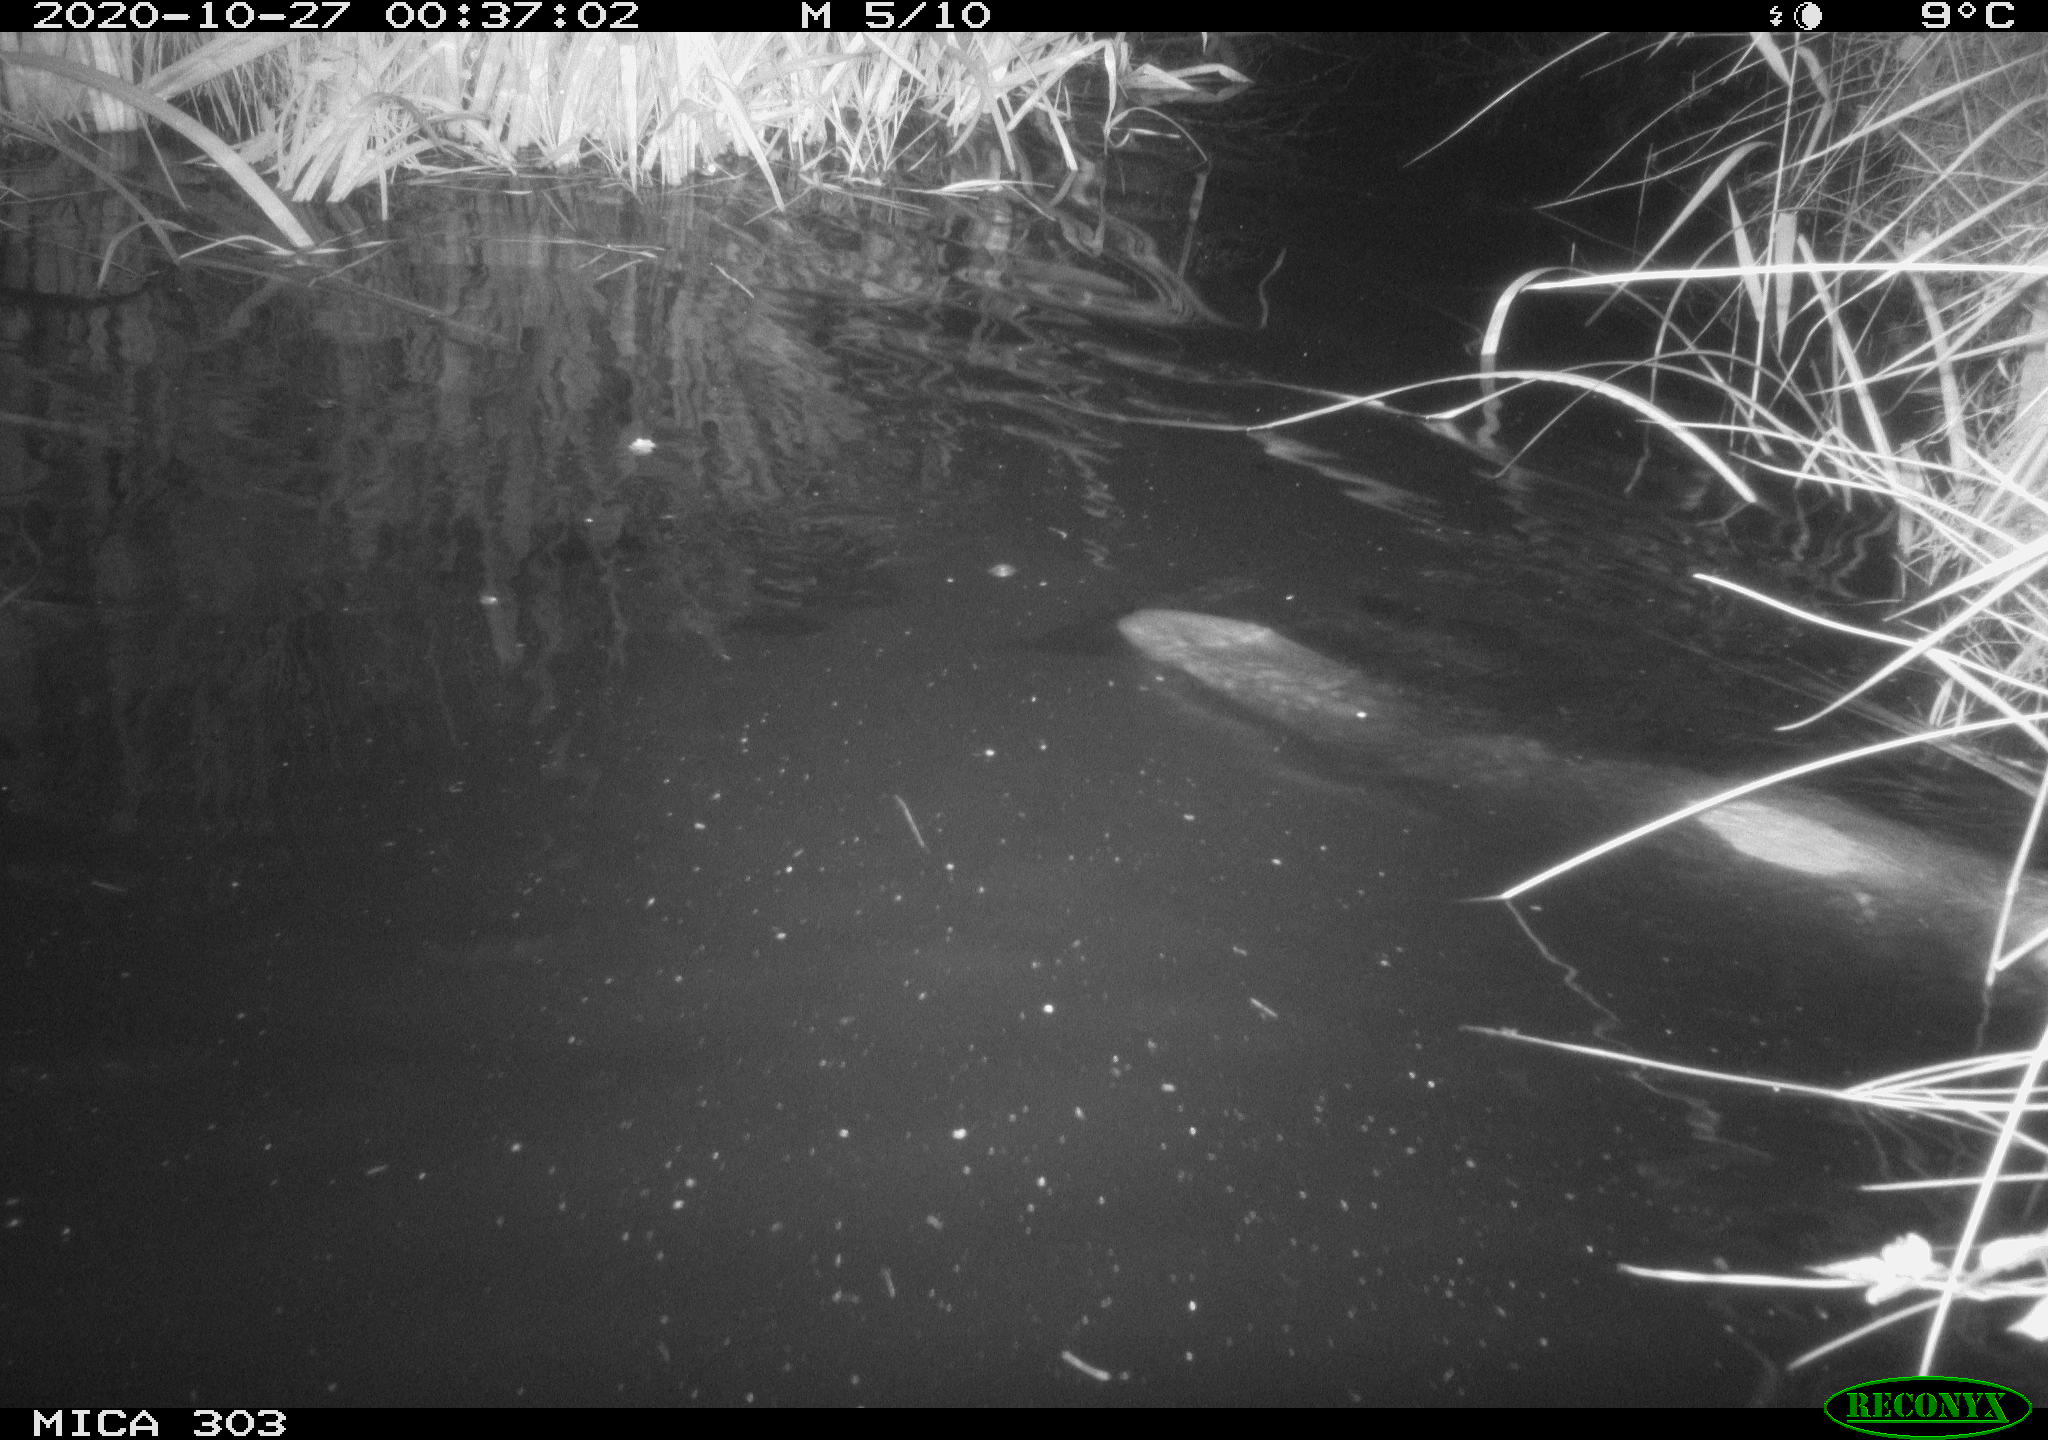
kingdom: Animalia
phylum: Chordata
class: Mammalia
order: Rodentia
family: Castoridae
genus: Castor
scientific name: Castor fiber
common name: Eurasian beaver
